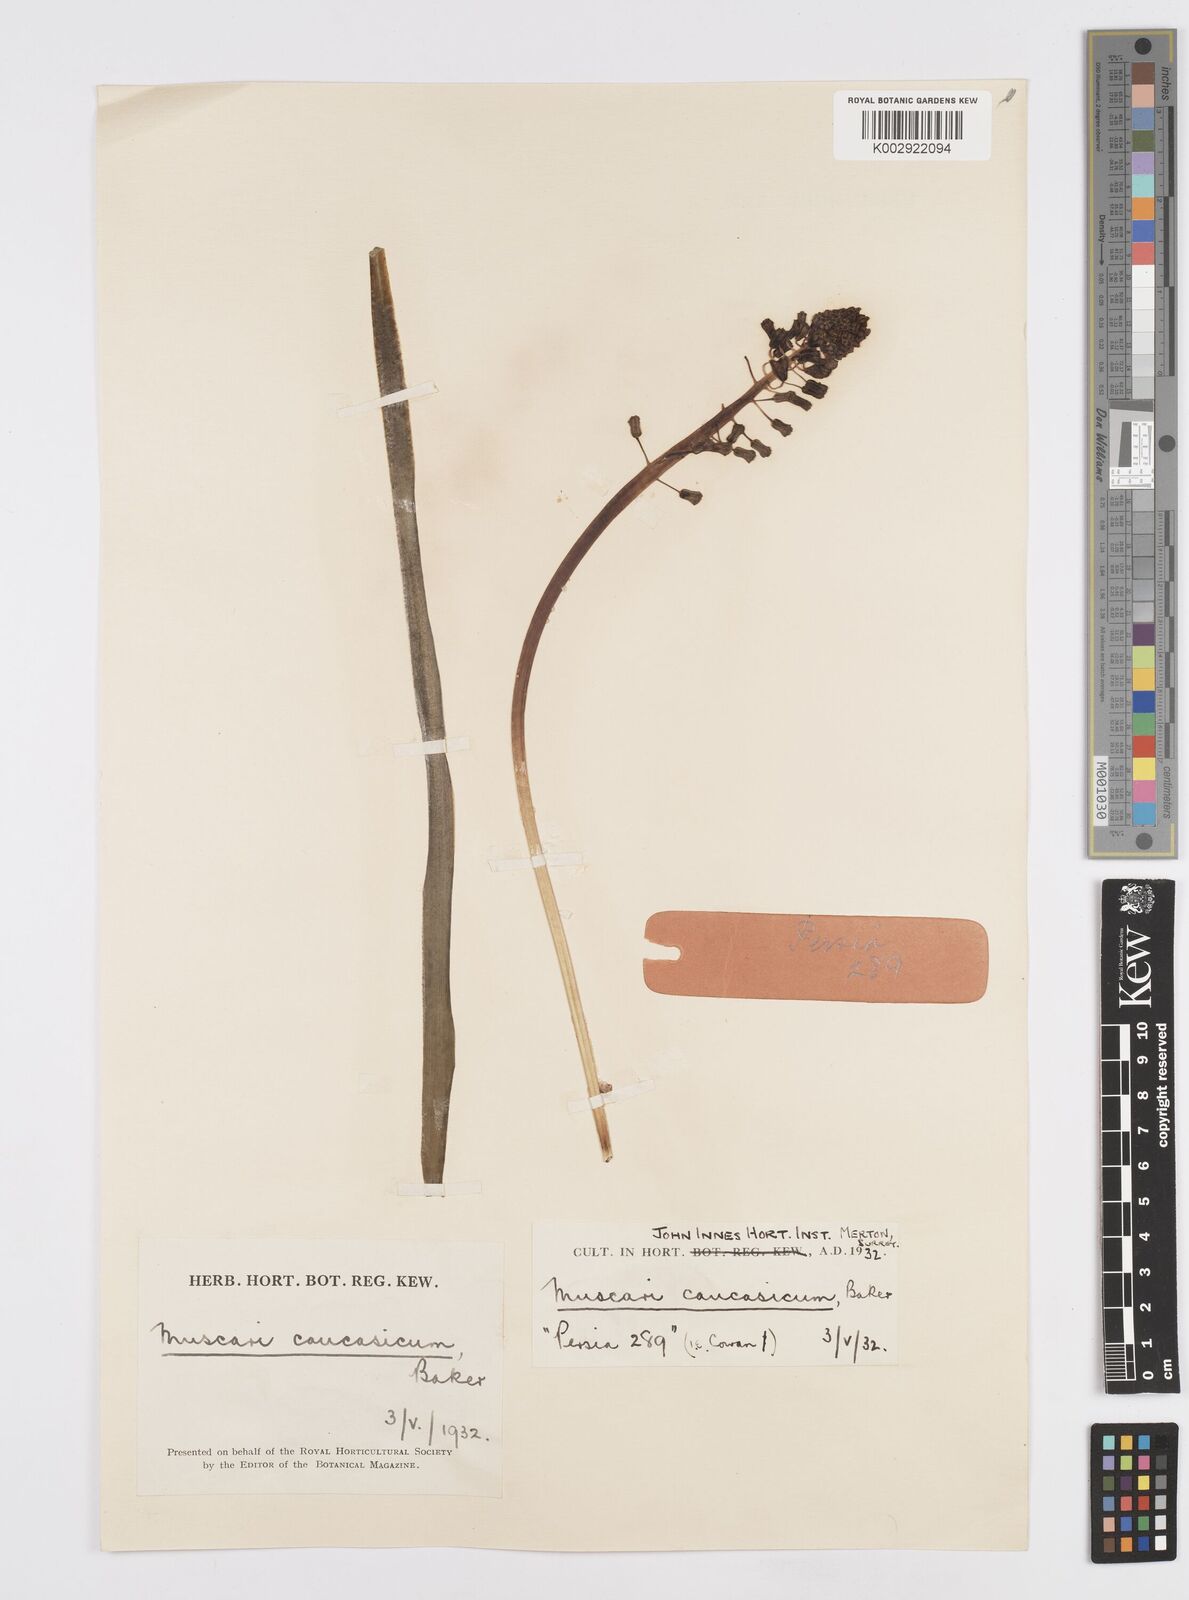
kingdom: Plantae
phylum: Tracheophyta
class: Liliopsida
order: Asparagales
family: Asparagaceae
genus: Muscari
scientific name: Muscari caucasicum
